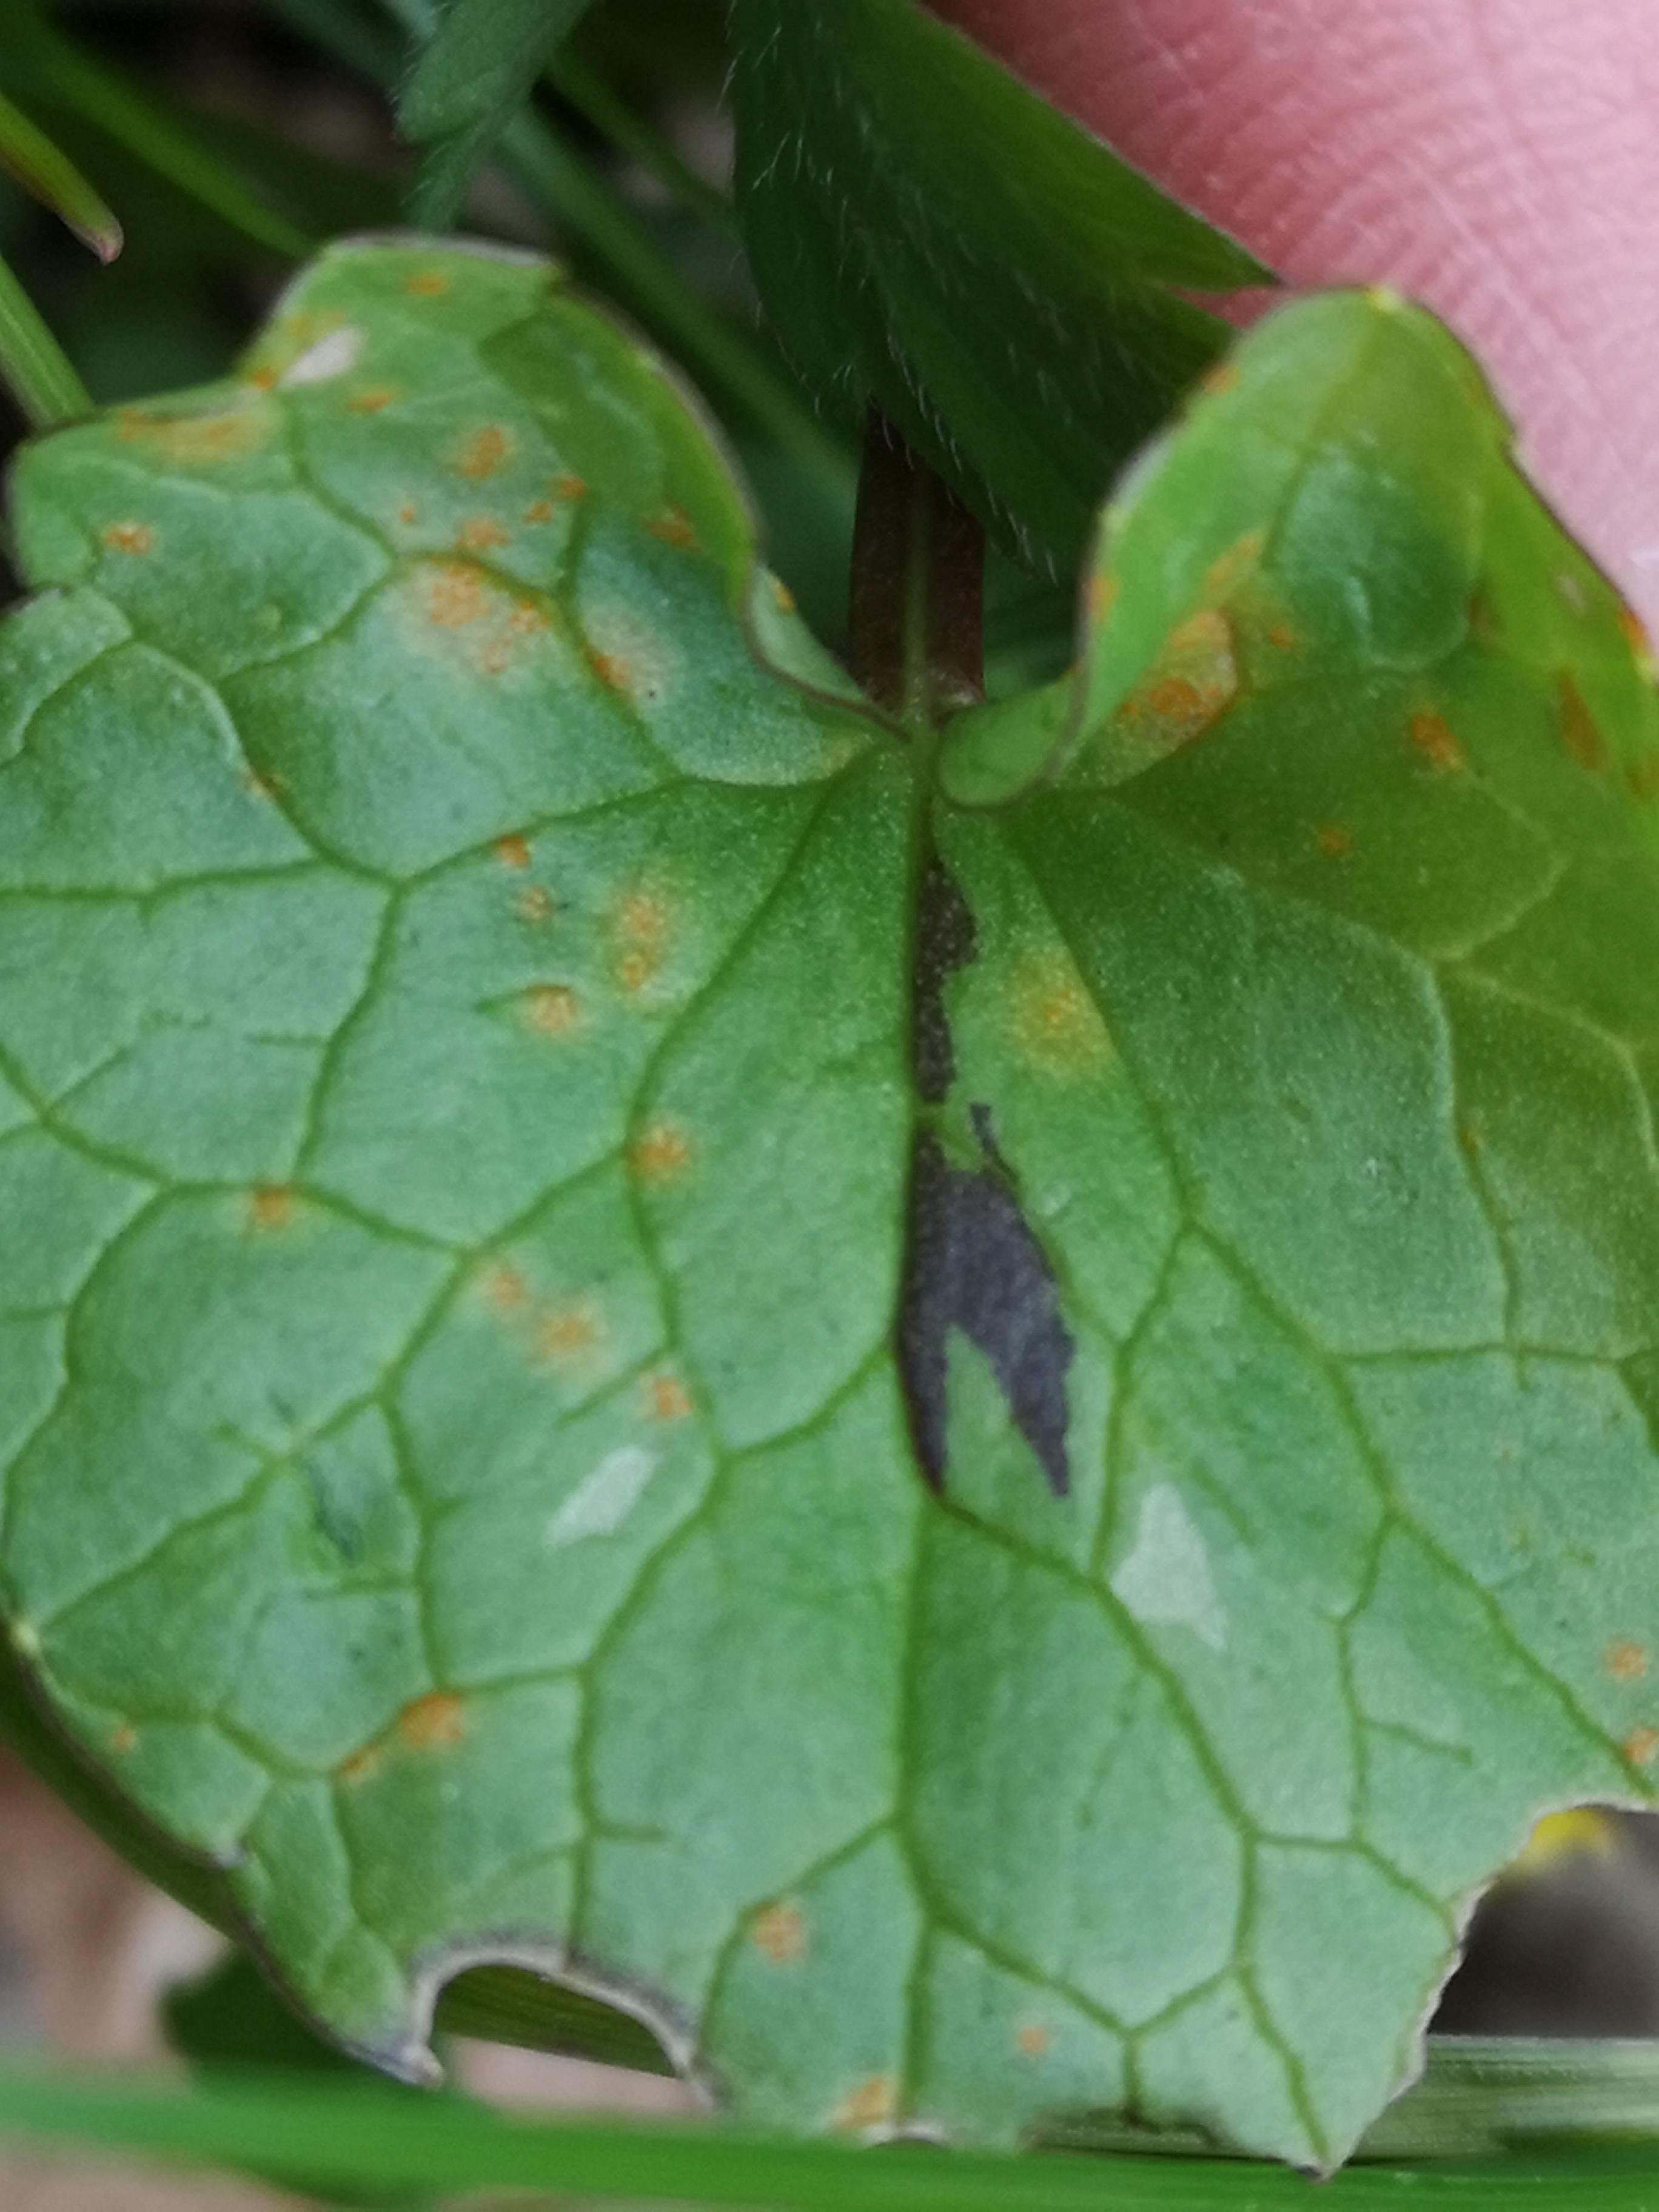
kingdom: Fungi
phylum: Basidiomycota
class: Pucciniomycetes
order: Pucciniales
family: Pucciniaceae
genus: Uromyces
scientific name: Uromyces ficariae
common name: vorterod-encellerust
